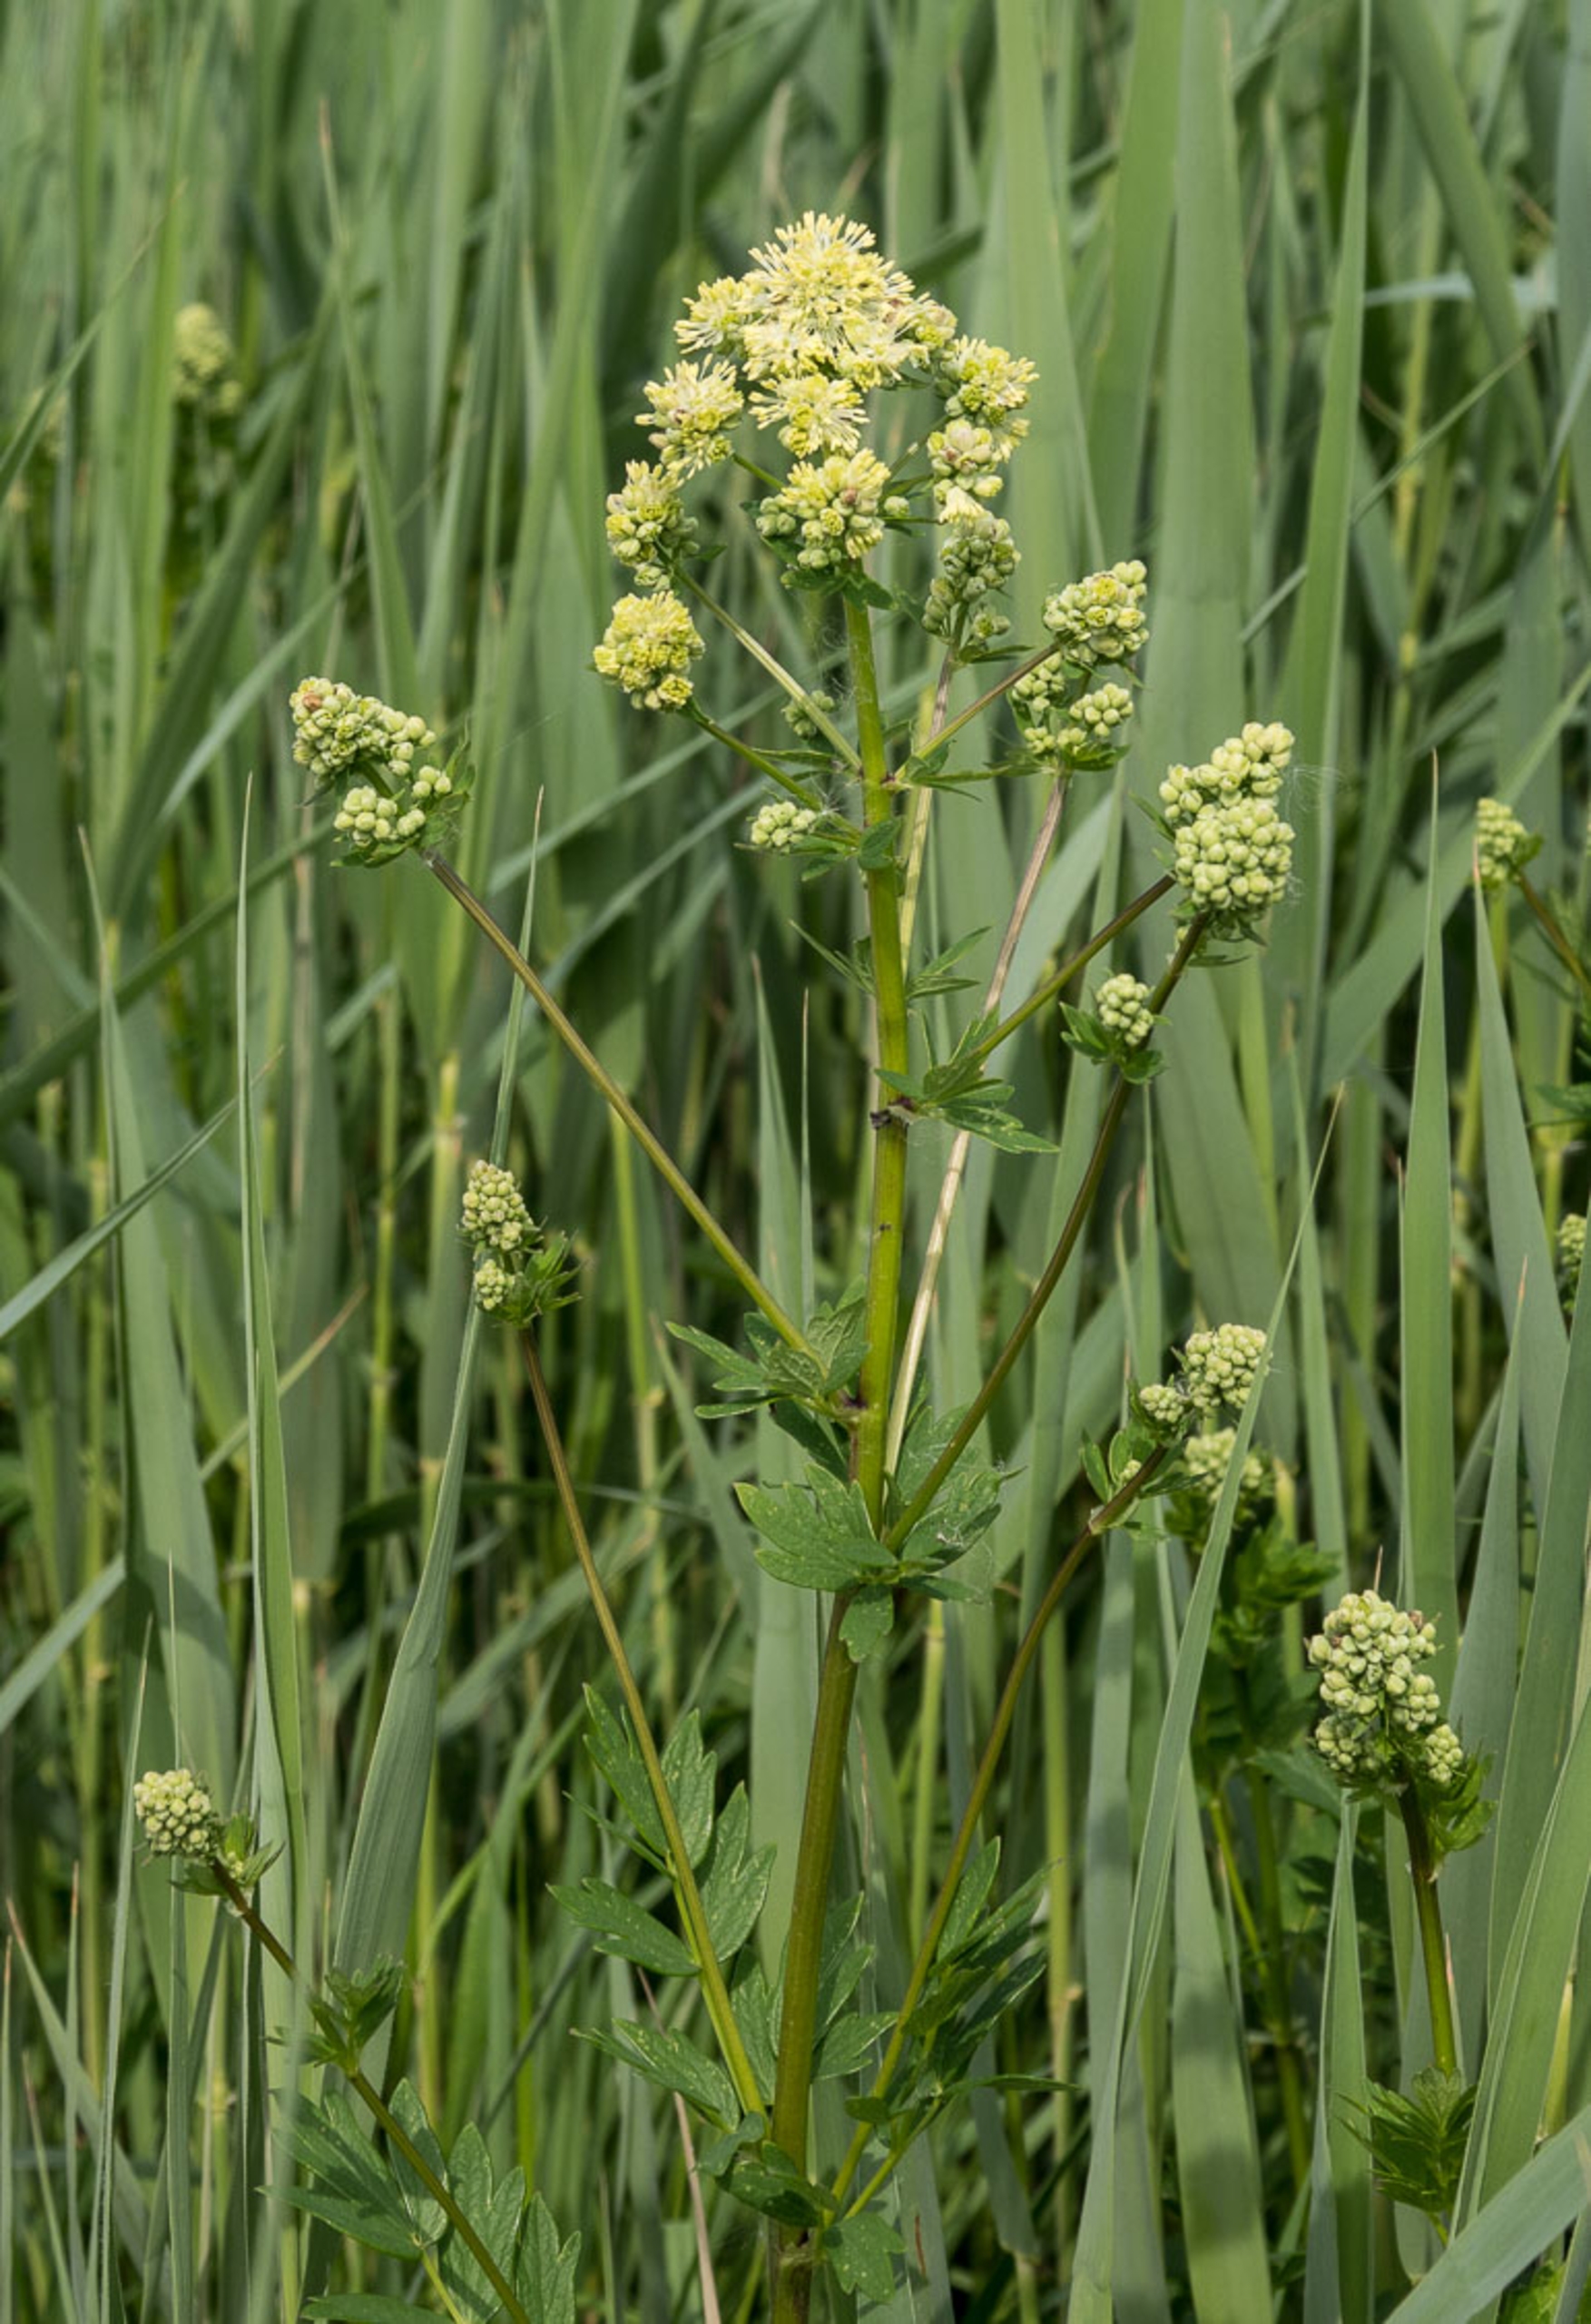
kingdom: Plantae
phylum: Tracheophyta
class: Magnoliopsida
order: Ranunculales
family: Ranunculaceae
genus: Thalictrum
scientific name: Thalictrum flavum
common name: Gul frøstjerne
